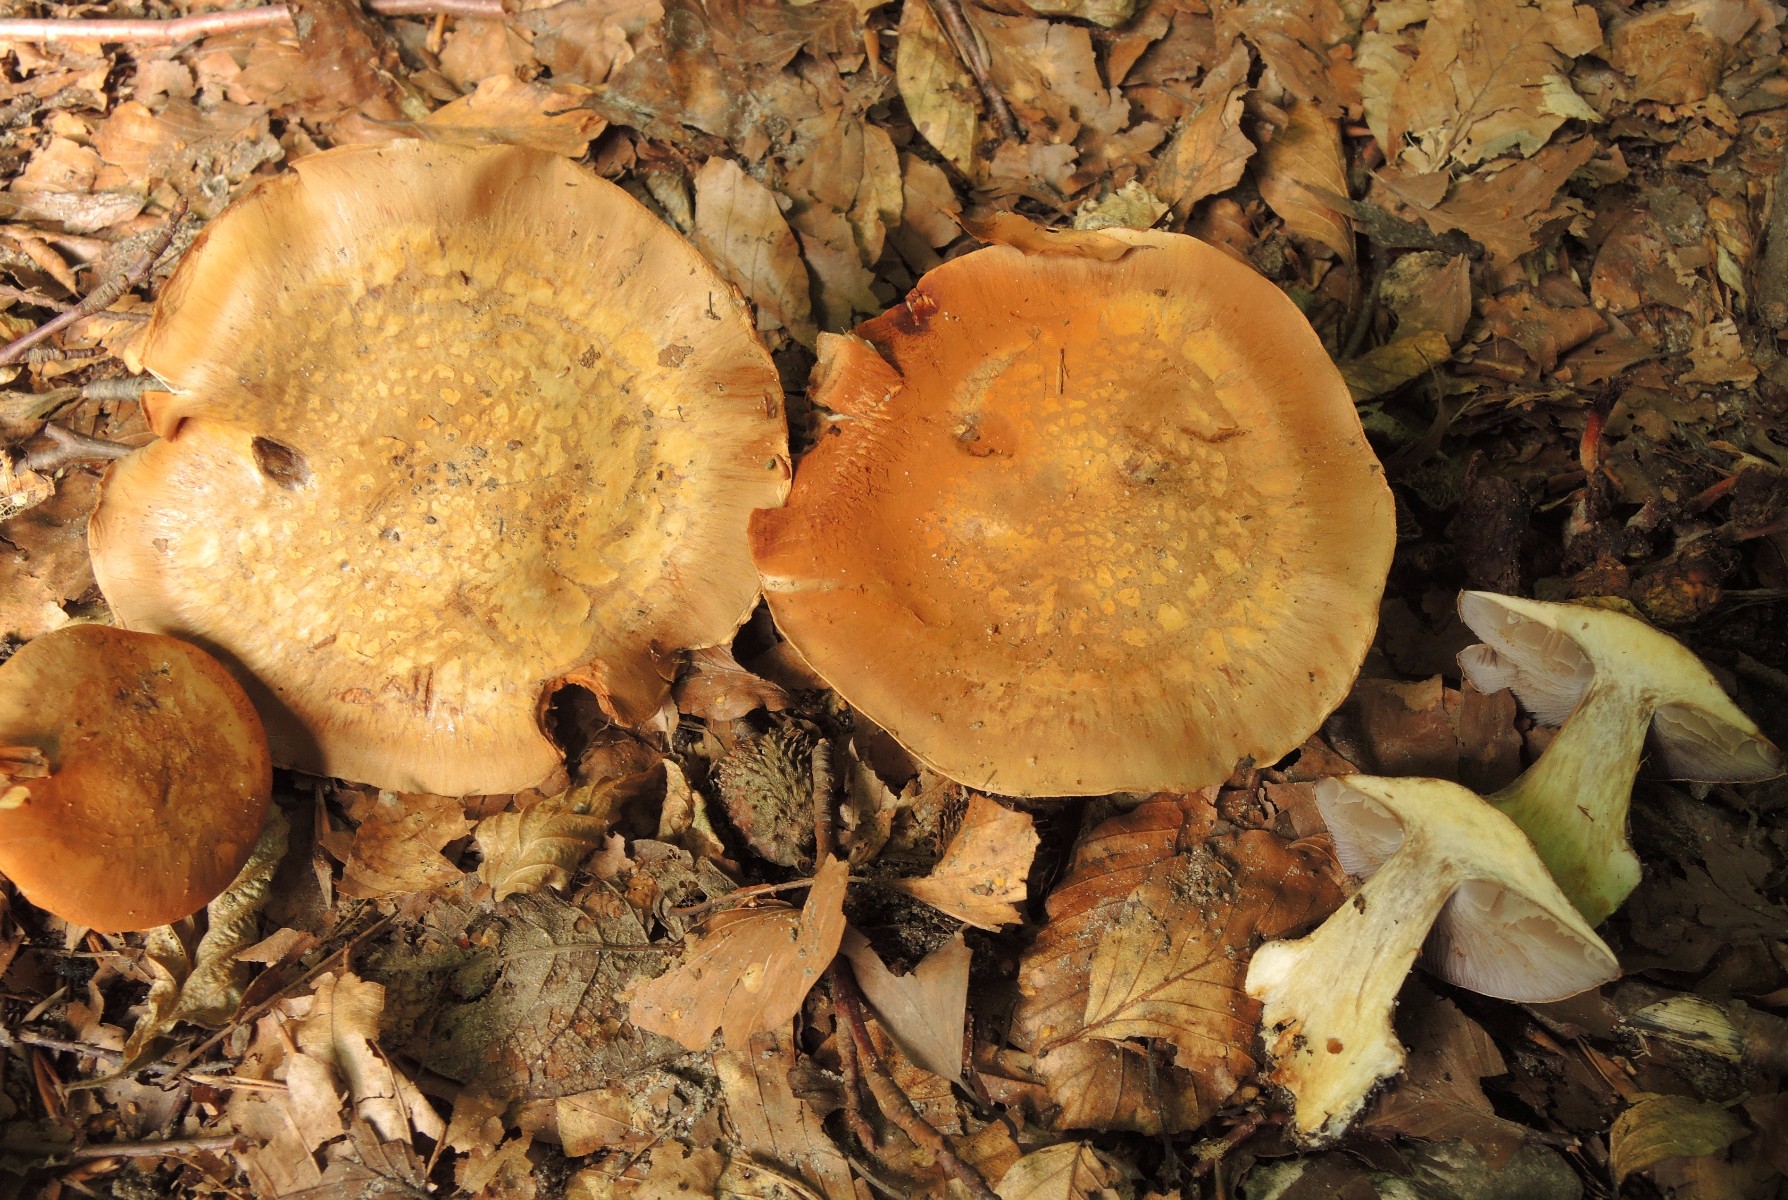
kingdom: Fungi
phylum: Basidiomycota
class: Agaricomycetes
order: Agaricales
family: Cortinariaceae
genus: Phlegmacium
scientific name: Phlegmacium luhmannii
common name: musegrå slørhat
